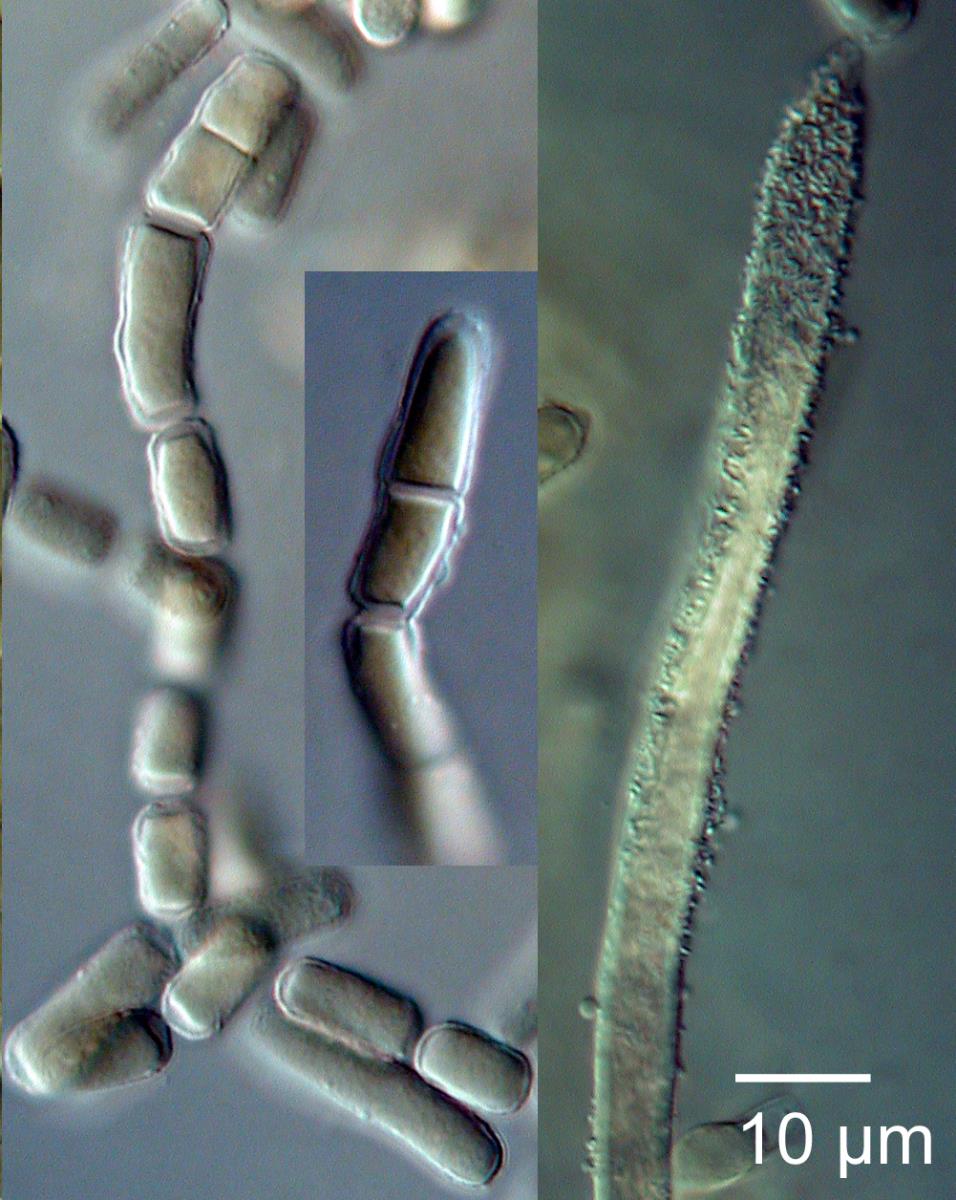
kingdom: Fungi
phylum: Ascomycota
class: Lecanoromycetes
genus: Trullula
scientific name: Trullula
